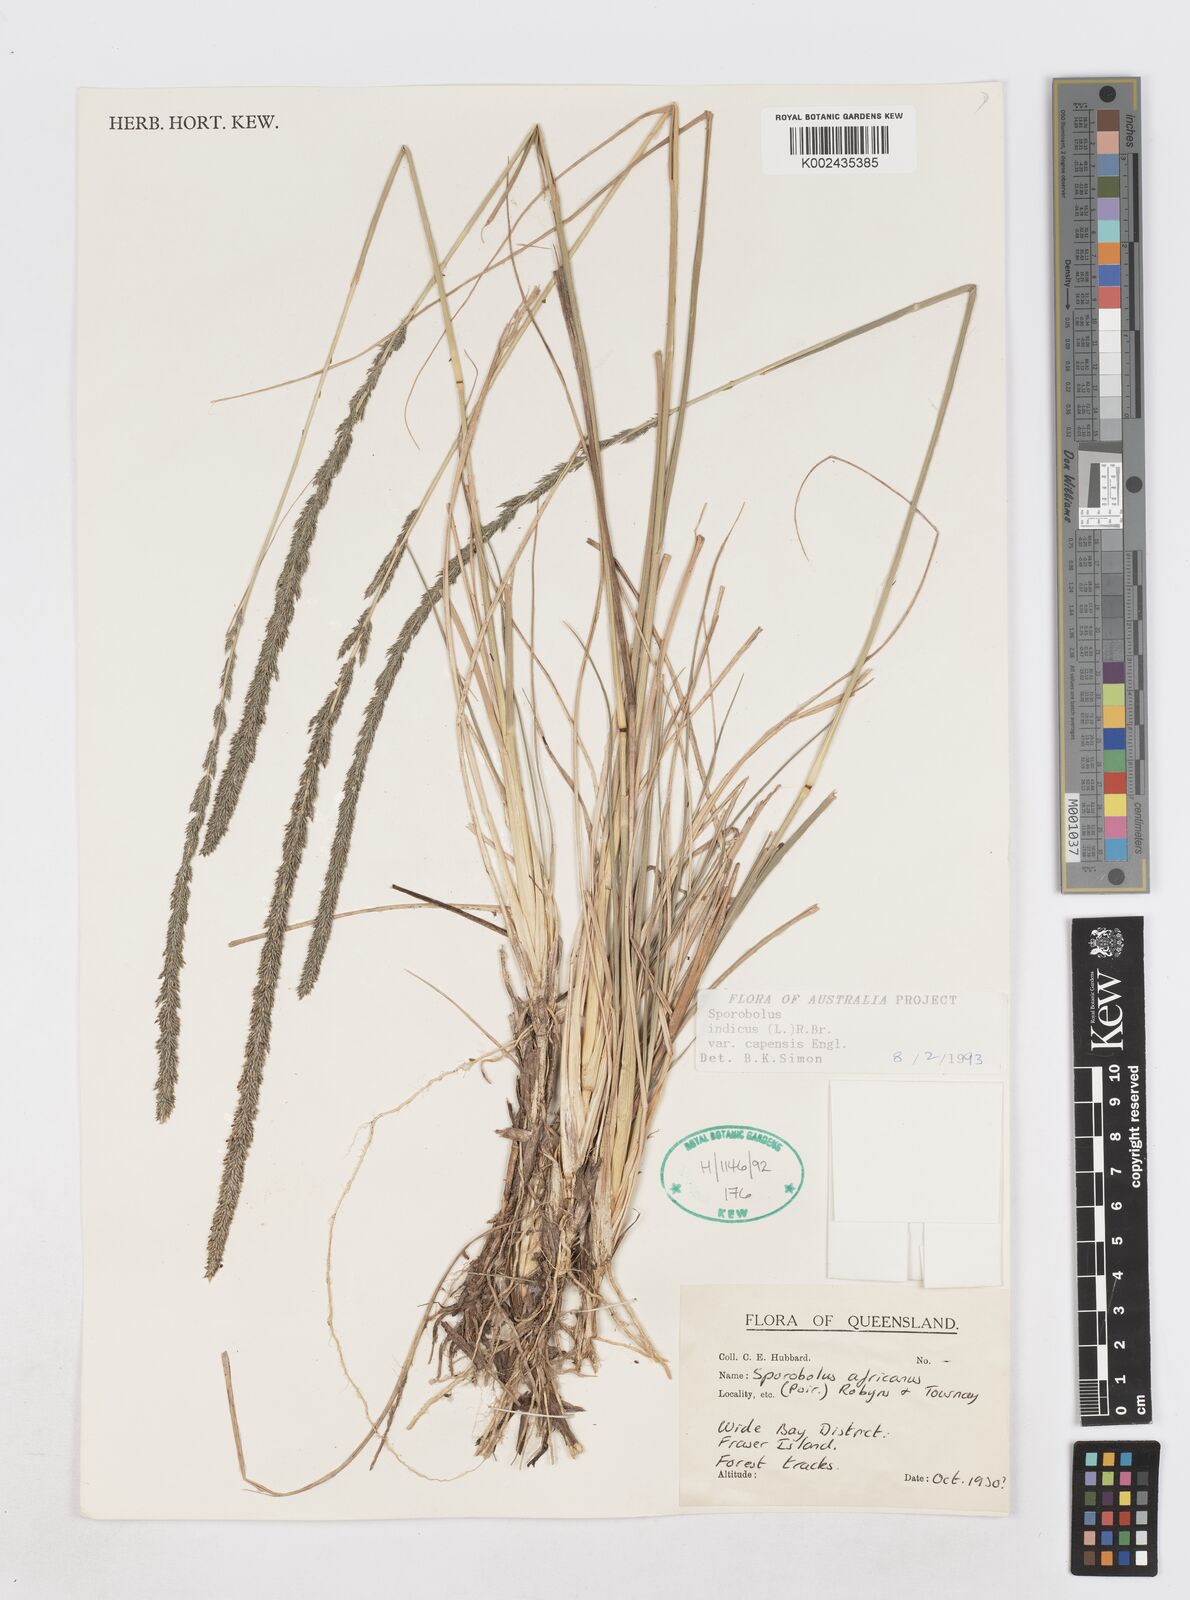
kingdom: Plantae
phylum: Tracheophyta
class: Liliopsida
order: Poales
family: Poaceae
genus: Sporobolus
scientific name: Sporobolus africanus
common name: African dropseed
